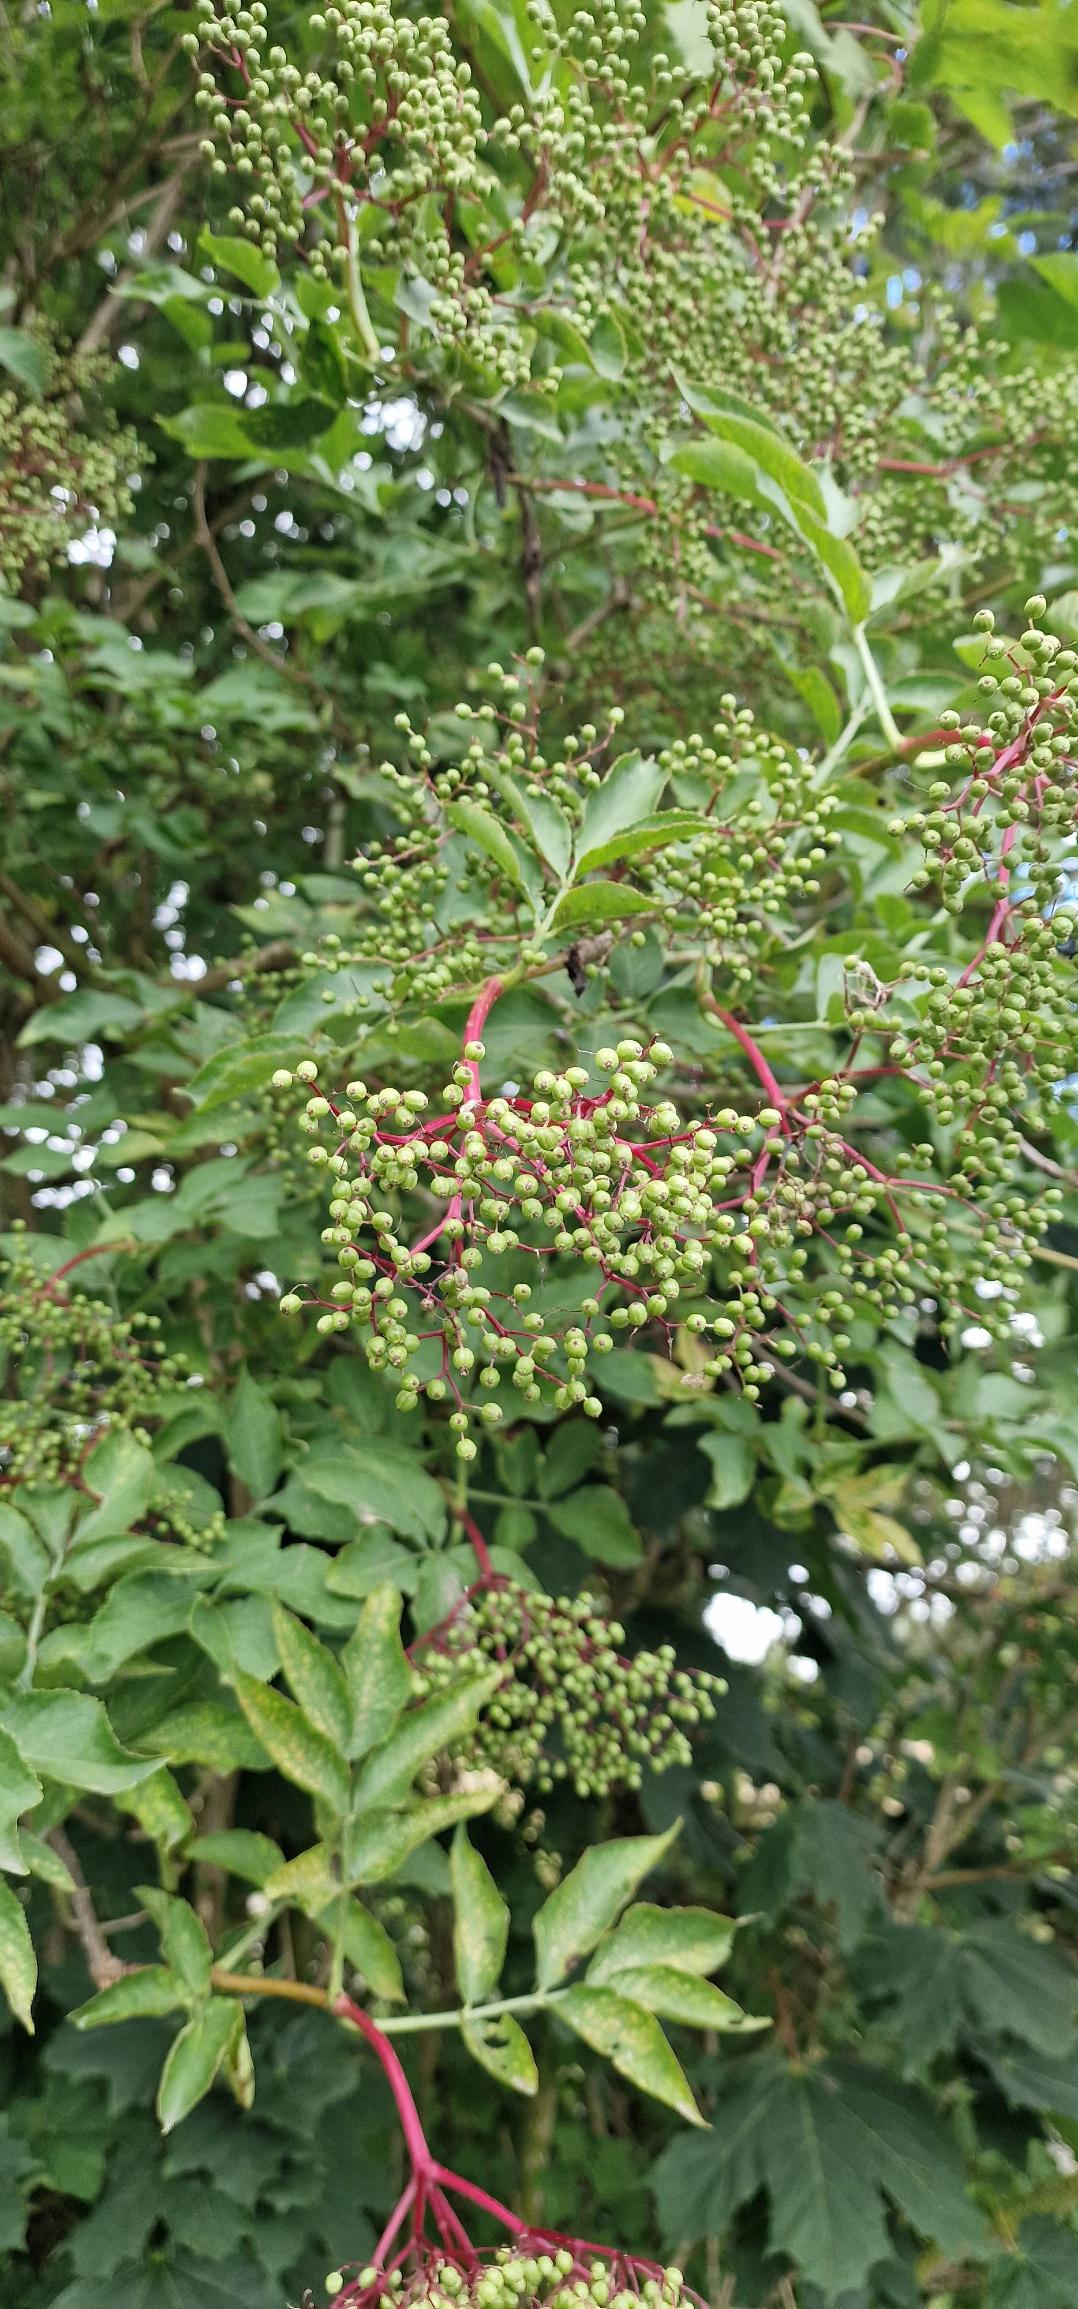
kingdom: Plantae
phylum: Tracheophyta
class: Magnoliopsida
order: Dipsacales
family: Viburnaceae
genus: Sambucus
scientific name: Sambucus nigra
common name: Almindelig hyld
